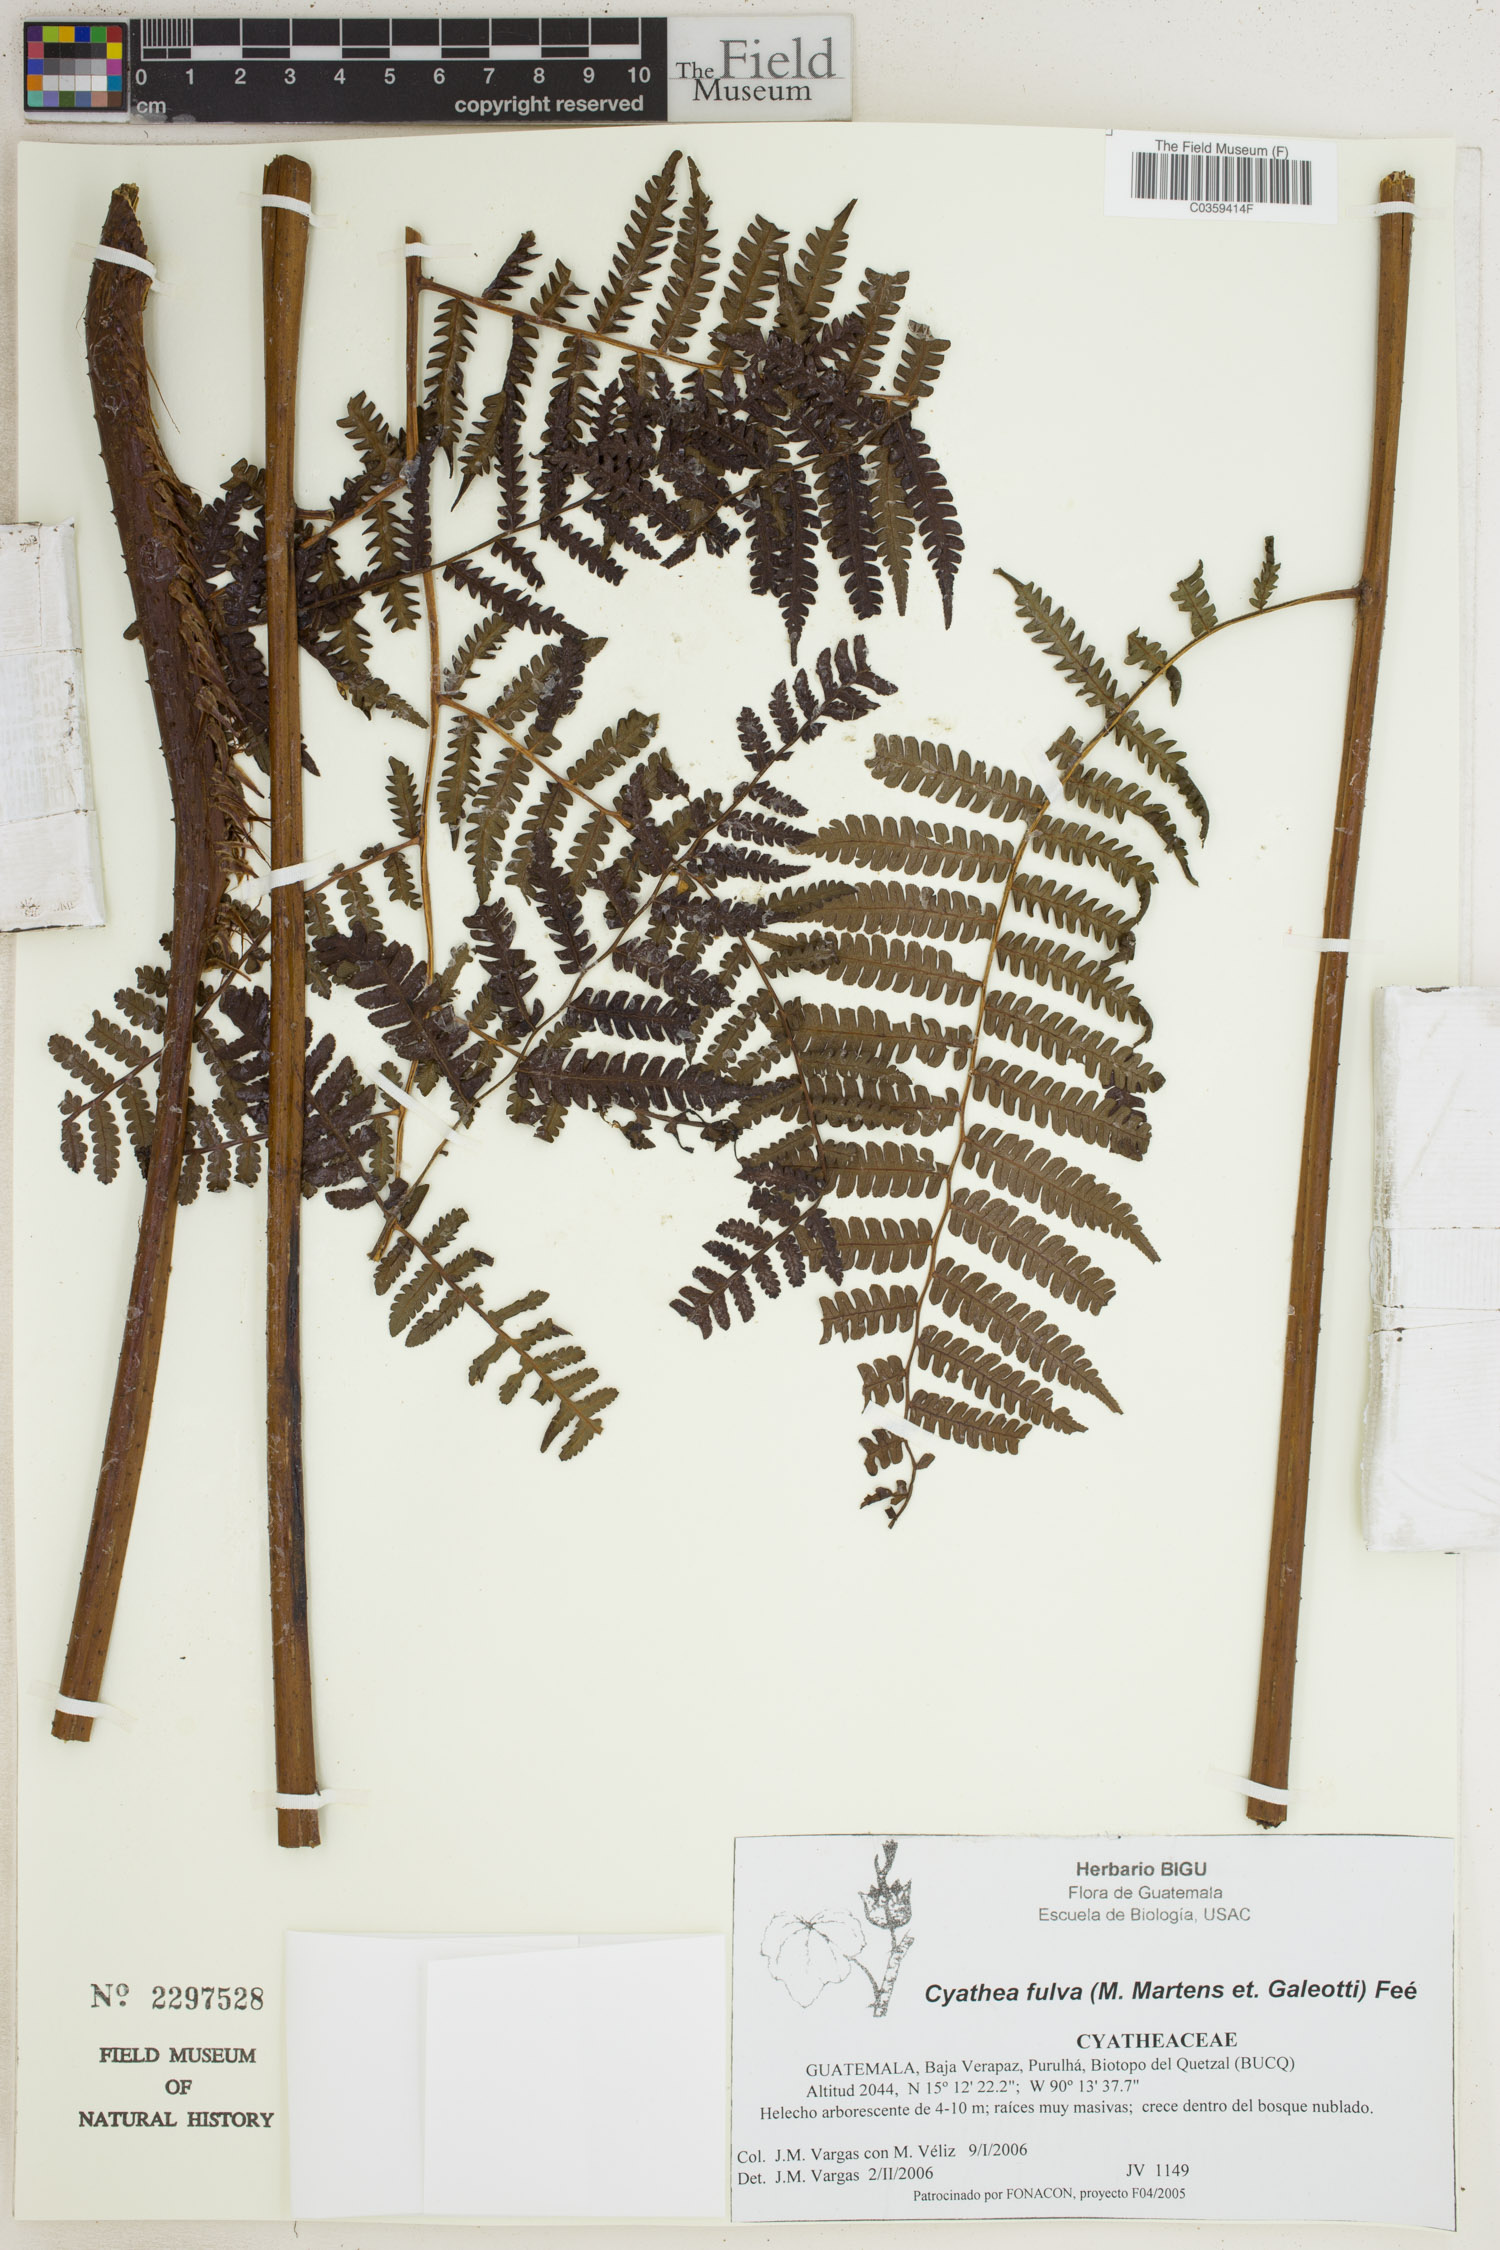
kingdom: Plantae
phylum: Tracheophyta
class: Polypodiopsida
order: Cyatheales
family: Cyatheaceae
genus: Cyathea
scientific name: Cyathea fulva
